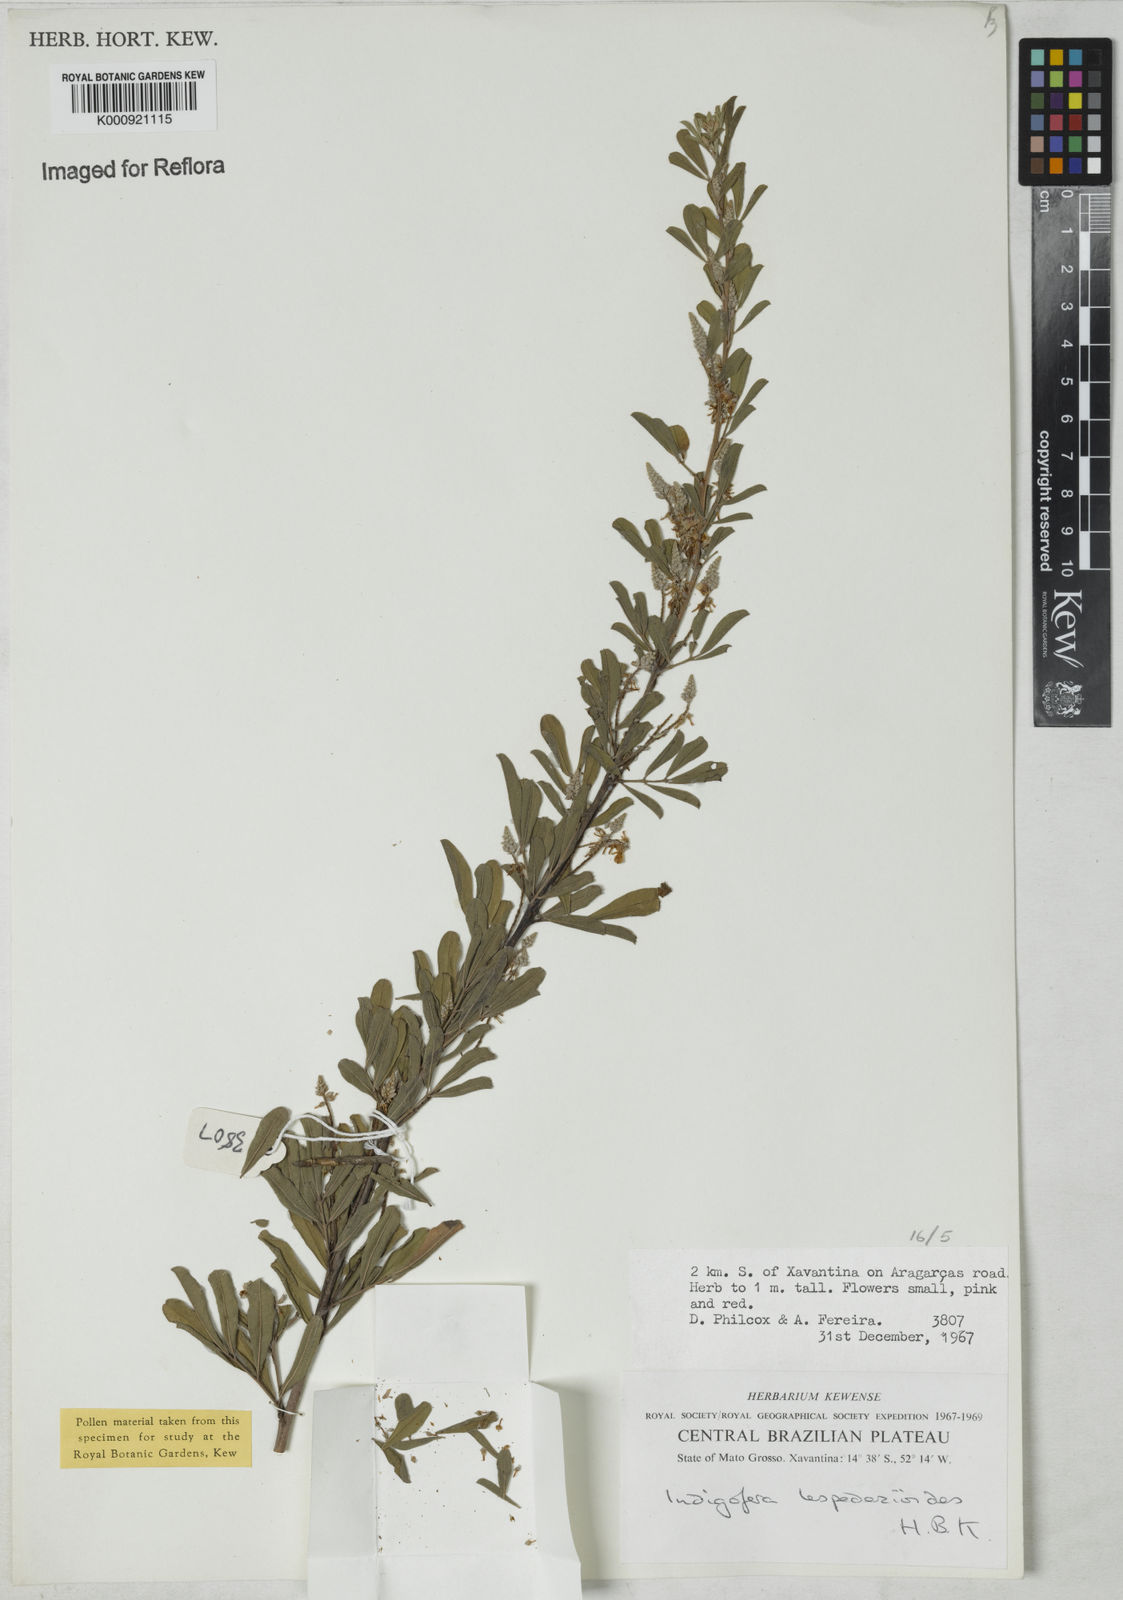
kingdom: Plantae
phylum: Tracheophyta
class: Magnoliopsida
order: Fabales
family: Fabaceae
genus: Indigofera
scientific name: Indigofera lespedezioides
